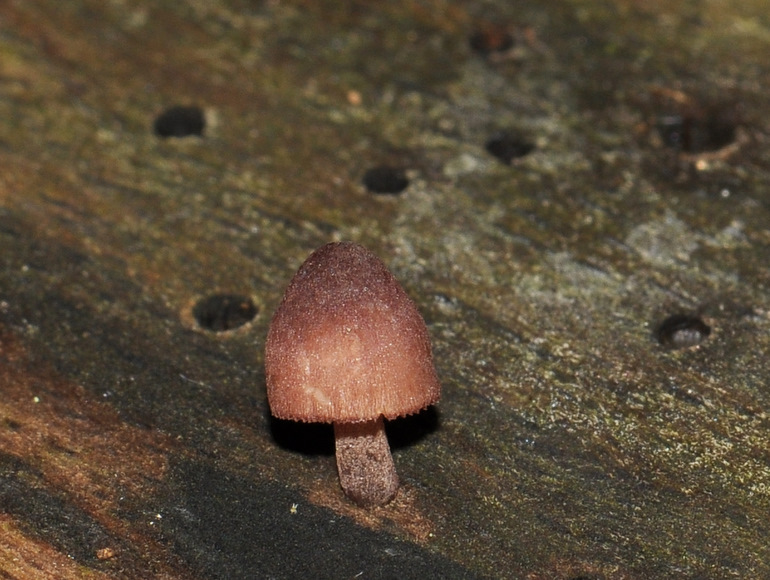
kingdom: Fungi
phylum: Basidiomycota
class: Agaricomycetes
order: Agaricales
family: Mycenaceae
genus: Mycena
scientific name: Mycena haematopus
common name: blødende huesvamp
